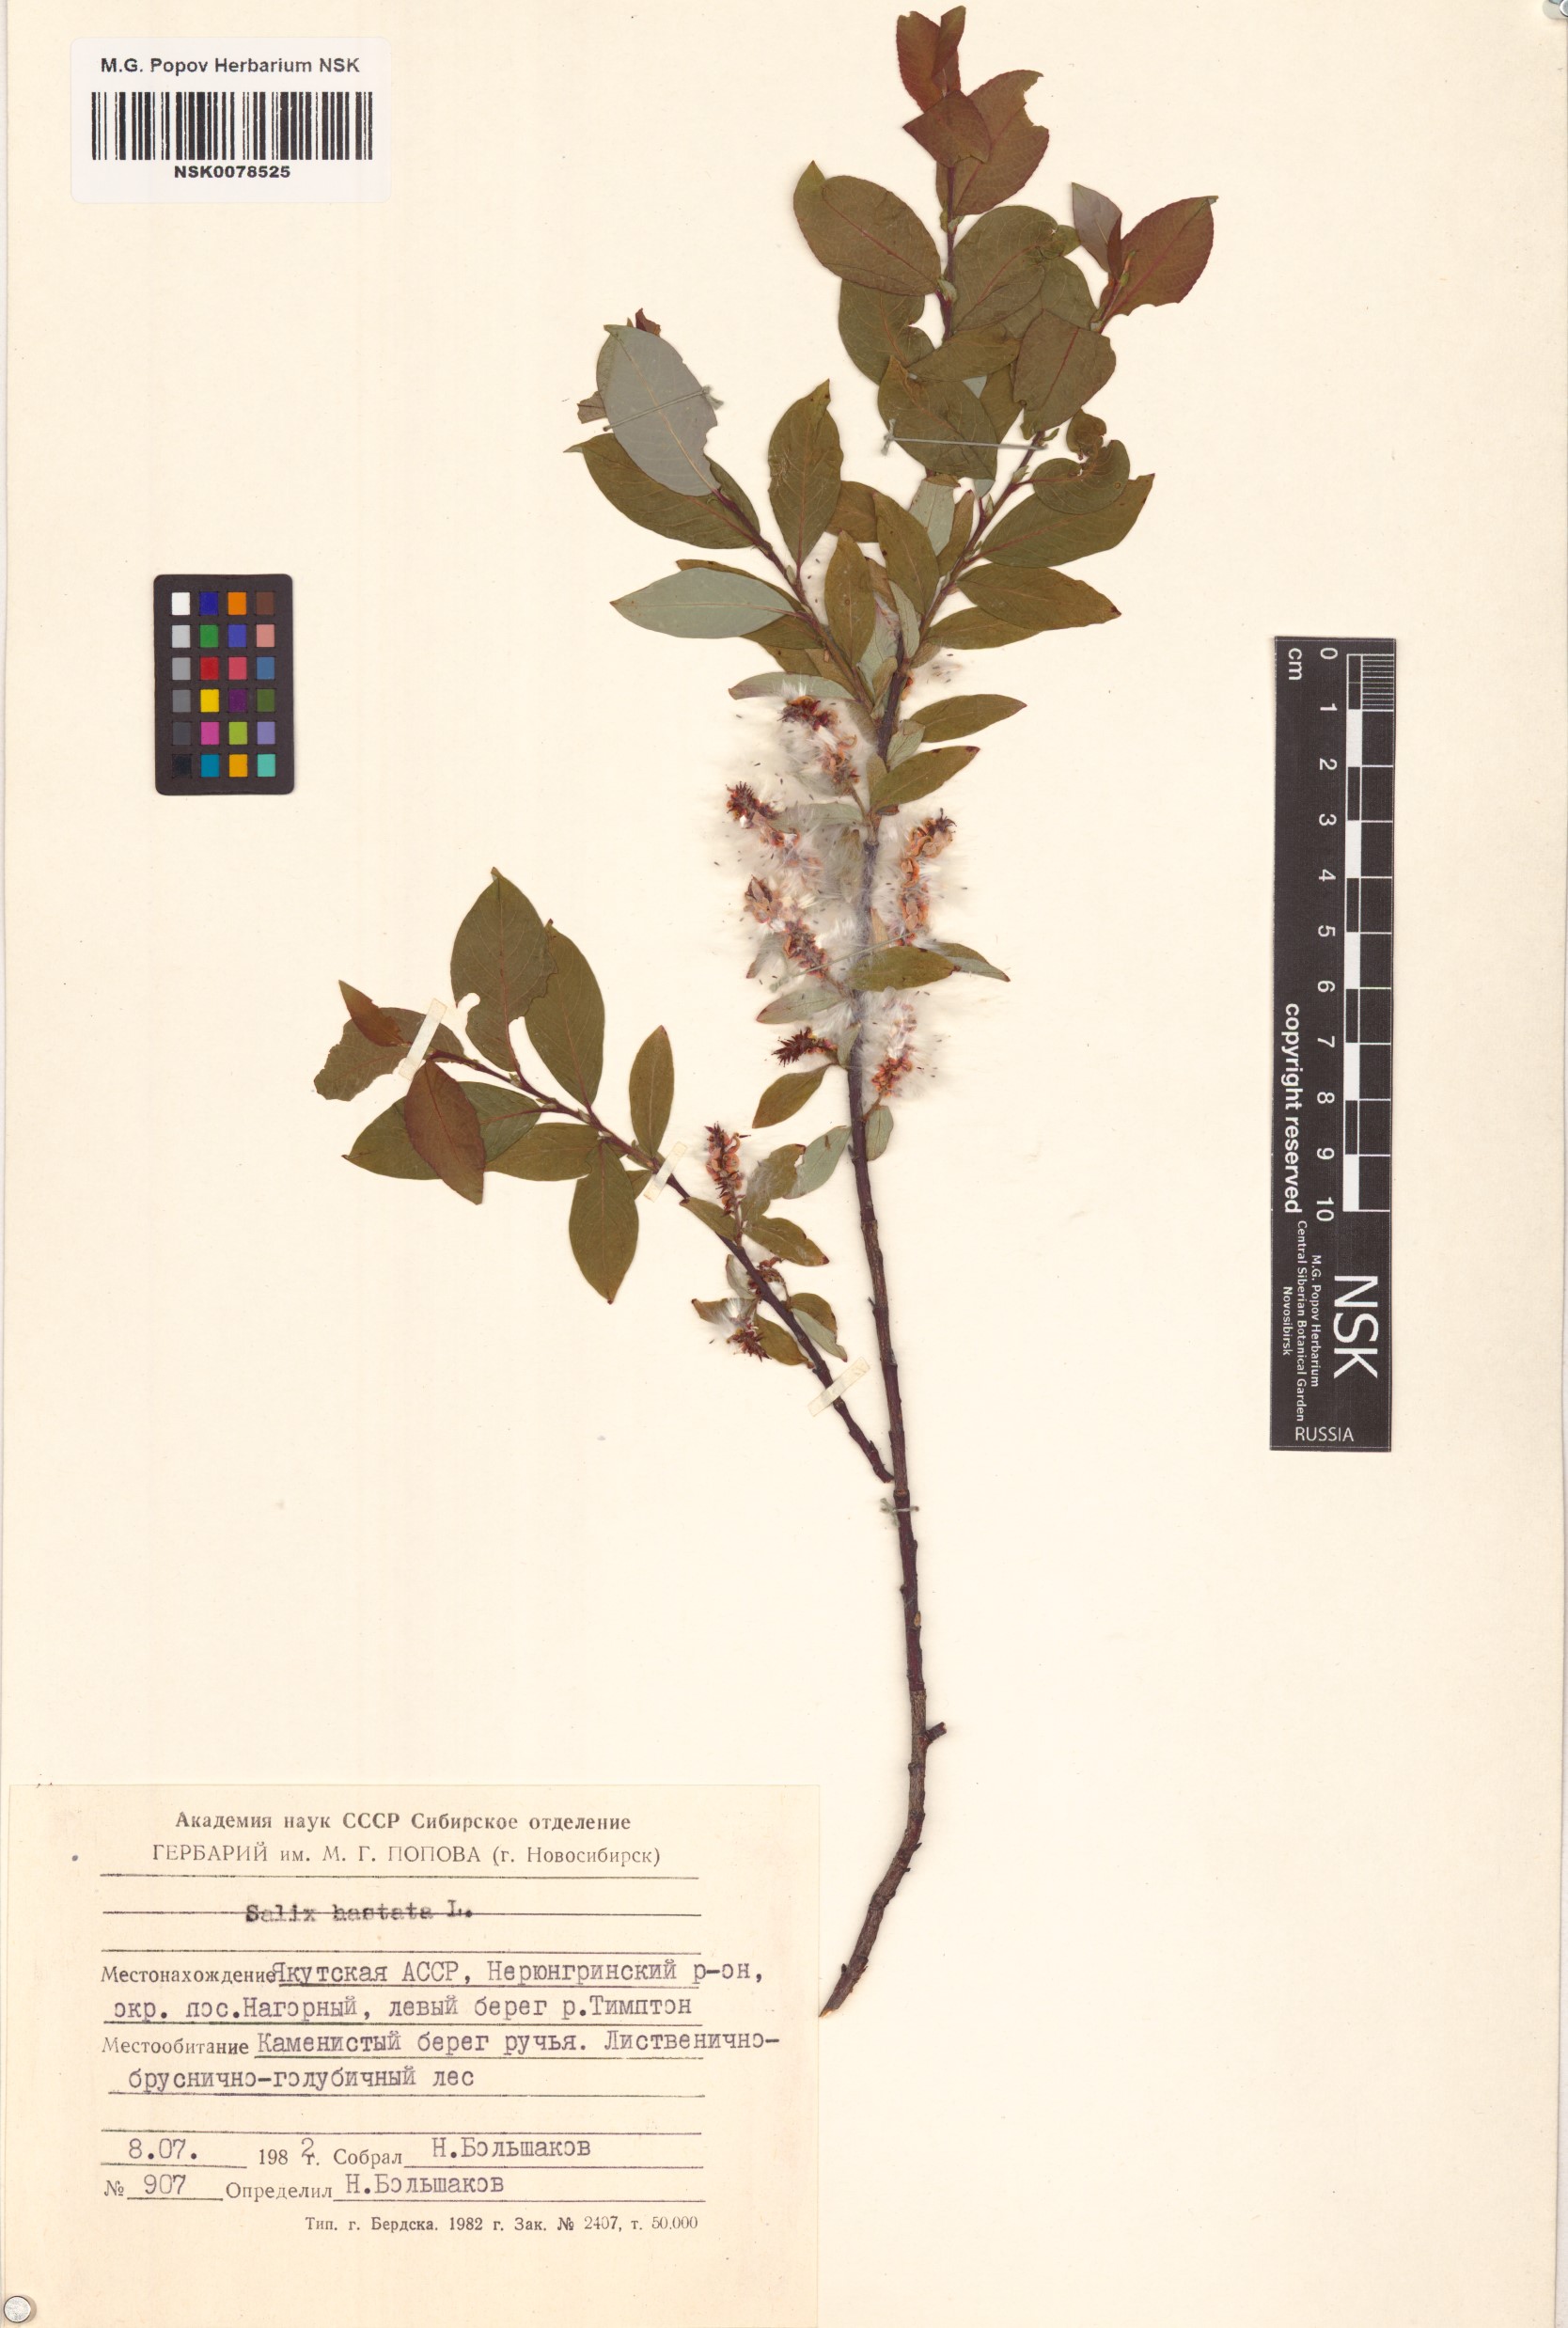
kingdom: Plantae
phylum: Tracheophyta
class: Magnoliopsida
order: Malpighiales
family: Salicaceae
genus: Salix
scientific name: Salix hastata
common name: Halberd willow
